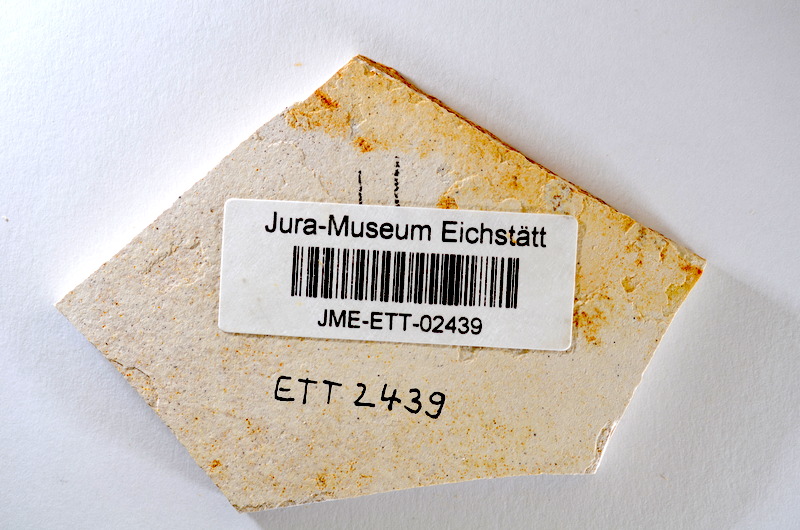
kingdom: Animalia
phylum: Chordata
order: Salmoniformes
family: Orthogonikleithridae
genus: Orthogonikleithrus
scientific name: Orthogonikleithrus hoelli
